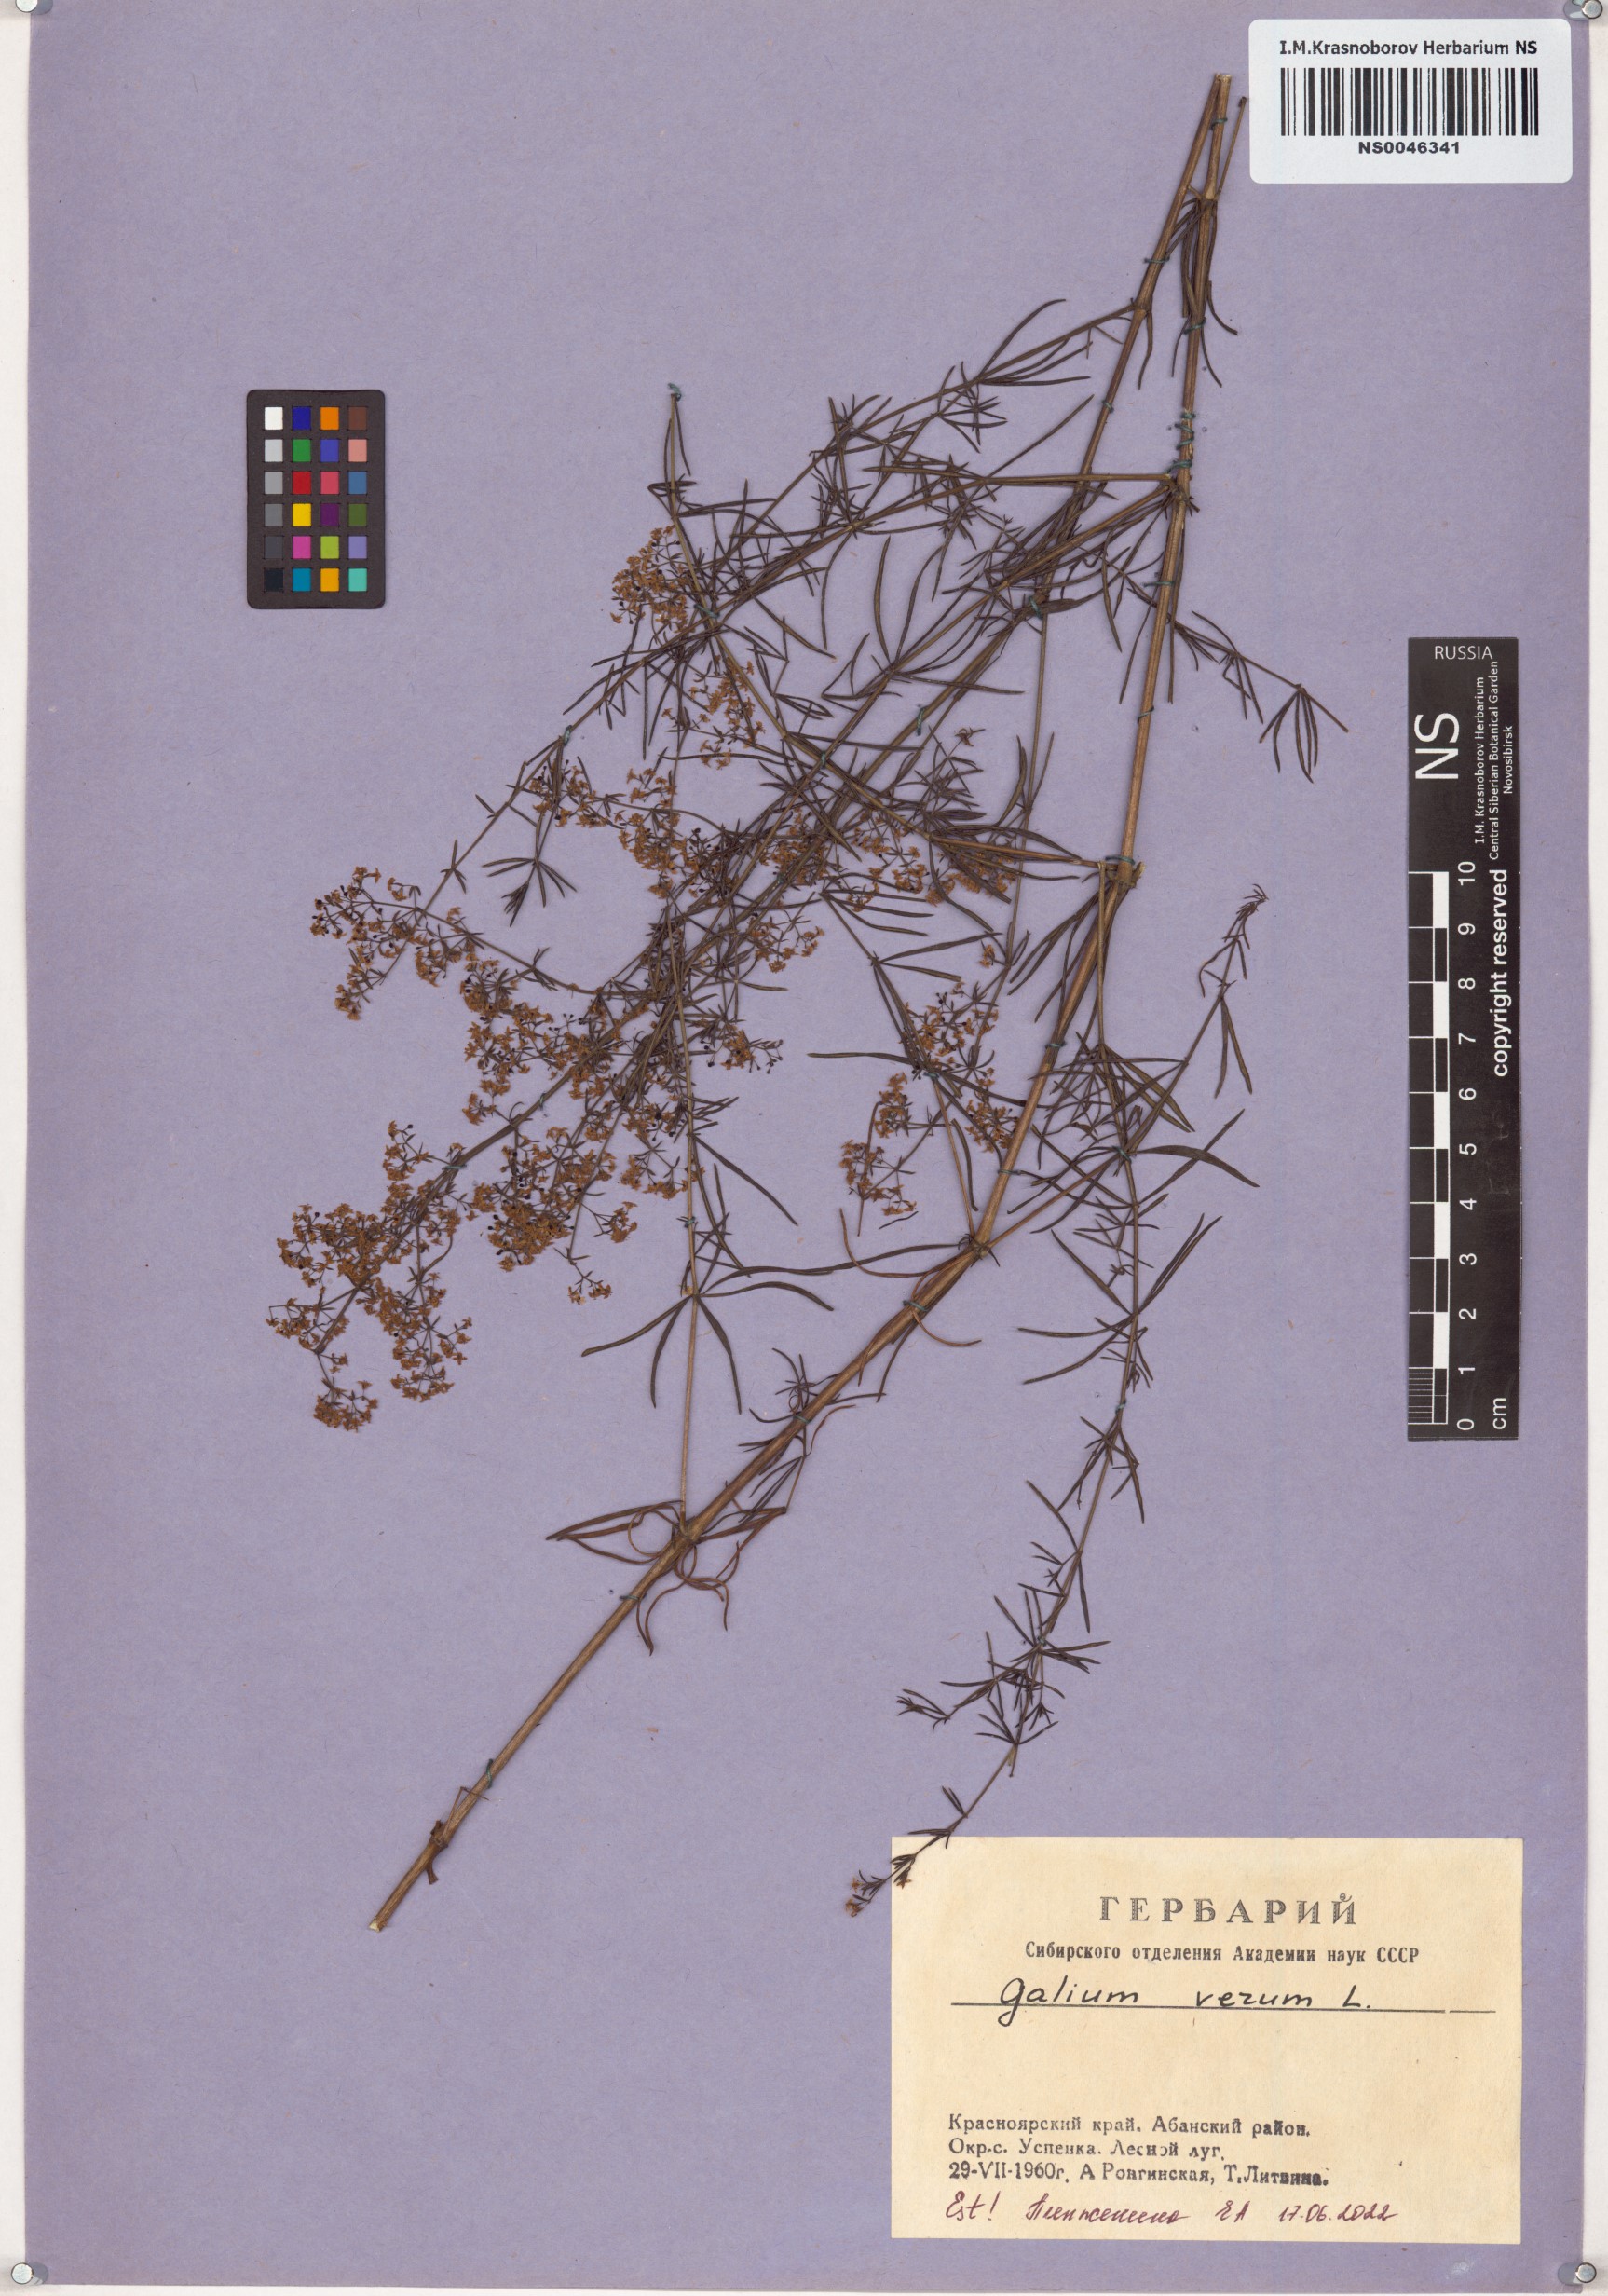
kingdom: Plantae
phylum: Tracheophyta
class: Magnoliopsida
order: Gentianales
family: Rubiaceae
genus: Galium
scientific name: Galium verum
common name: Lady's bedstraw
